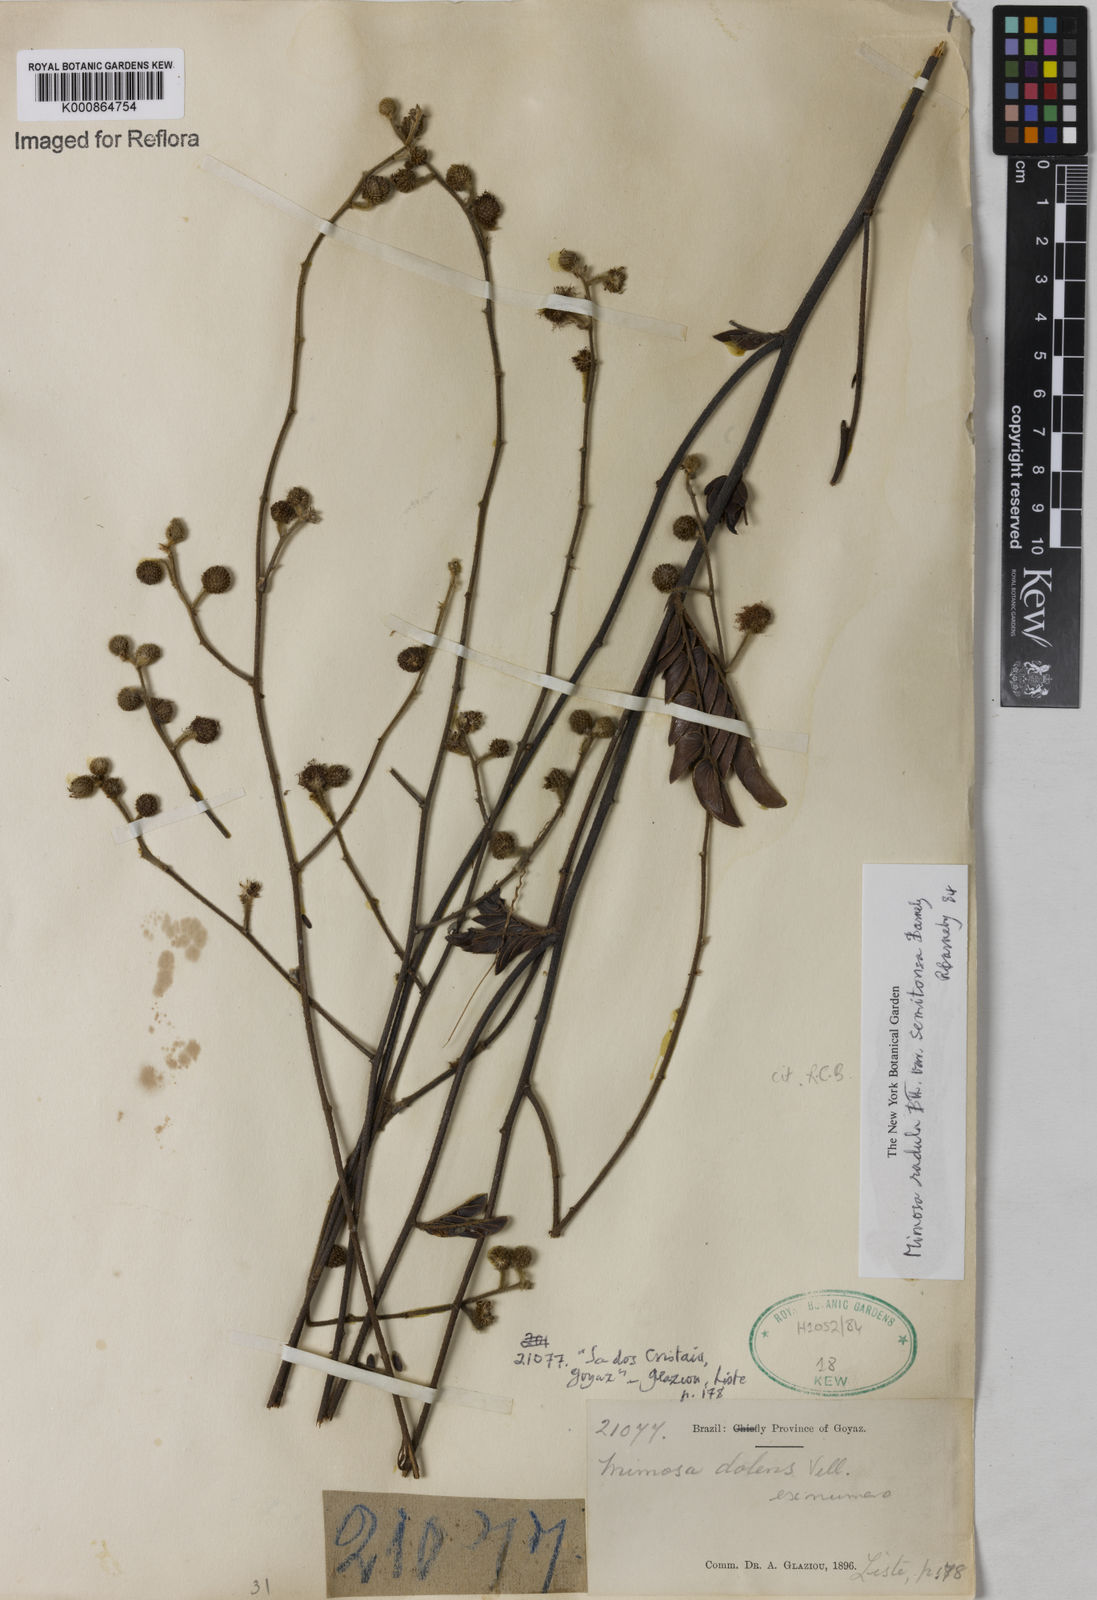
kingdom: Plantae
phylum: Tracheophyta
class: Magnoliopsida
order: Fabales
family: Fabaceae
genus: Mimosa
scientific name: Mimosa radula
